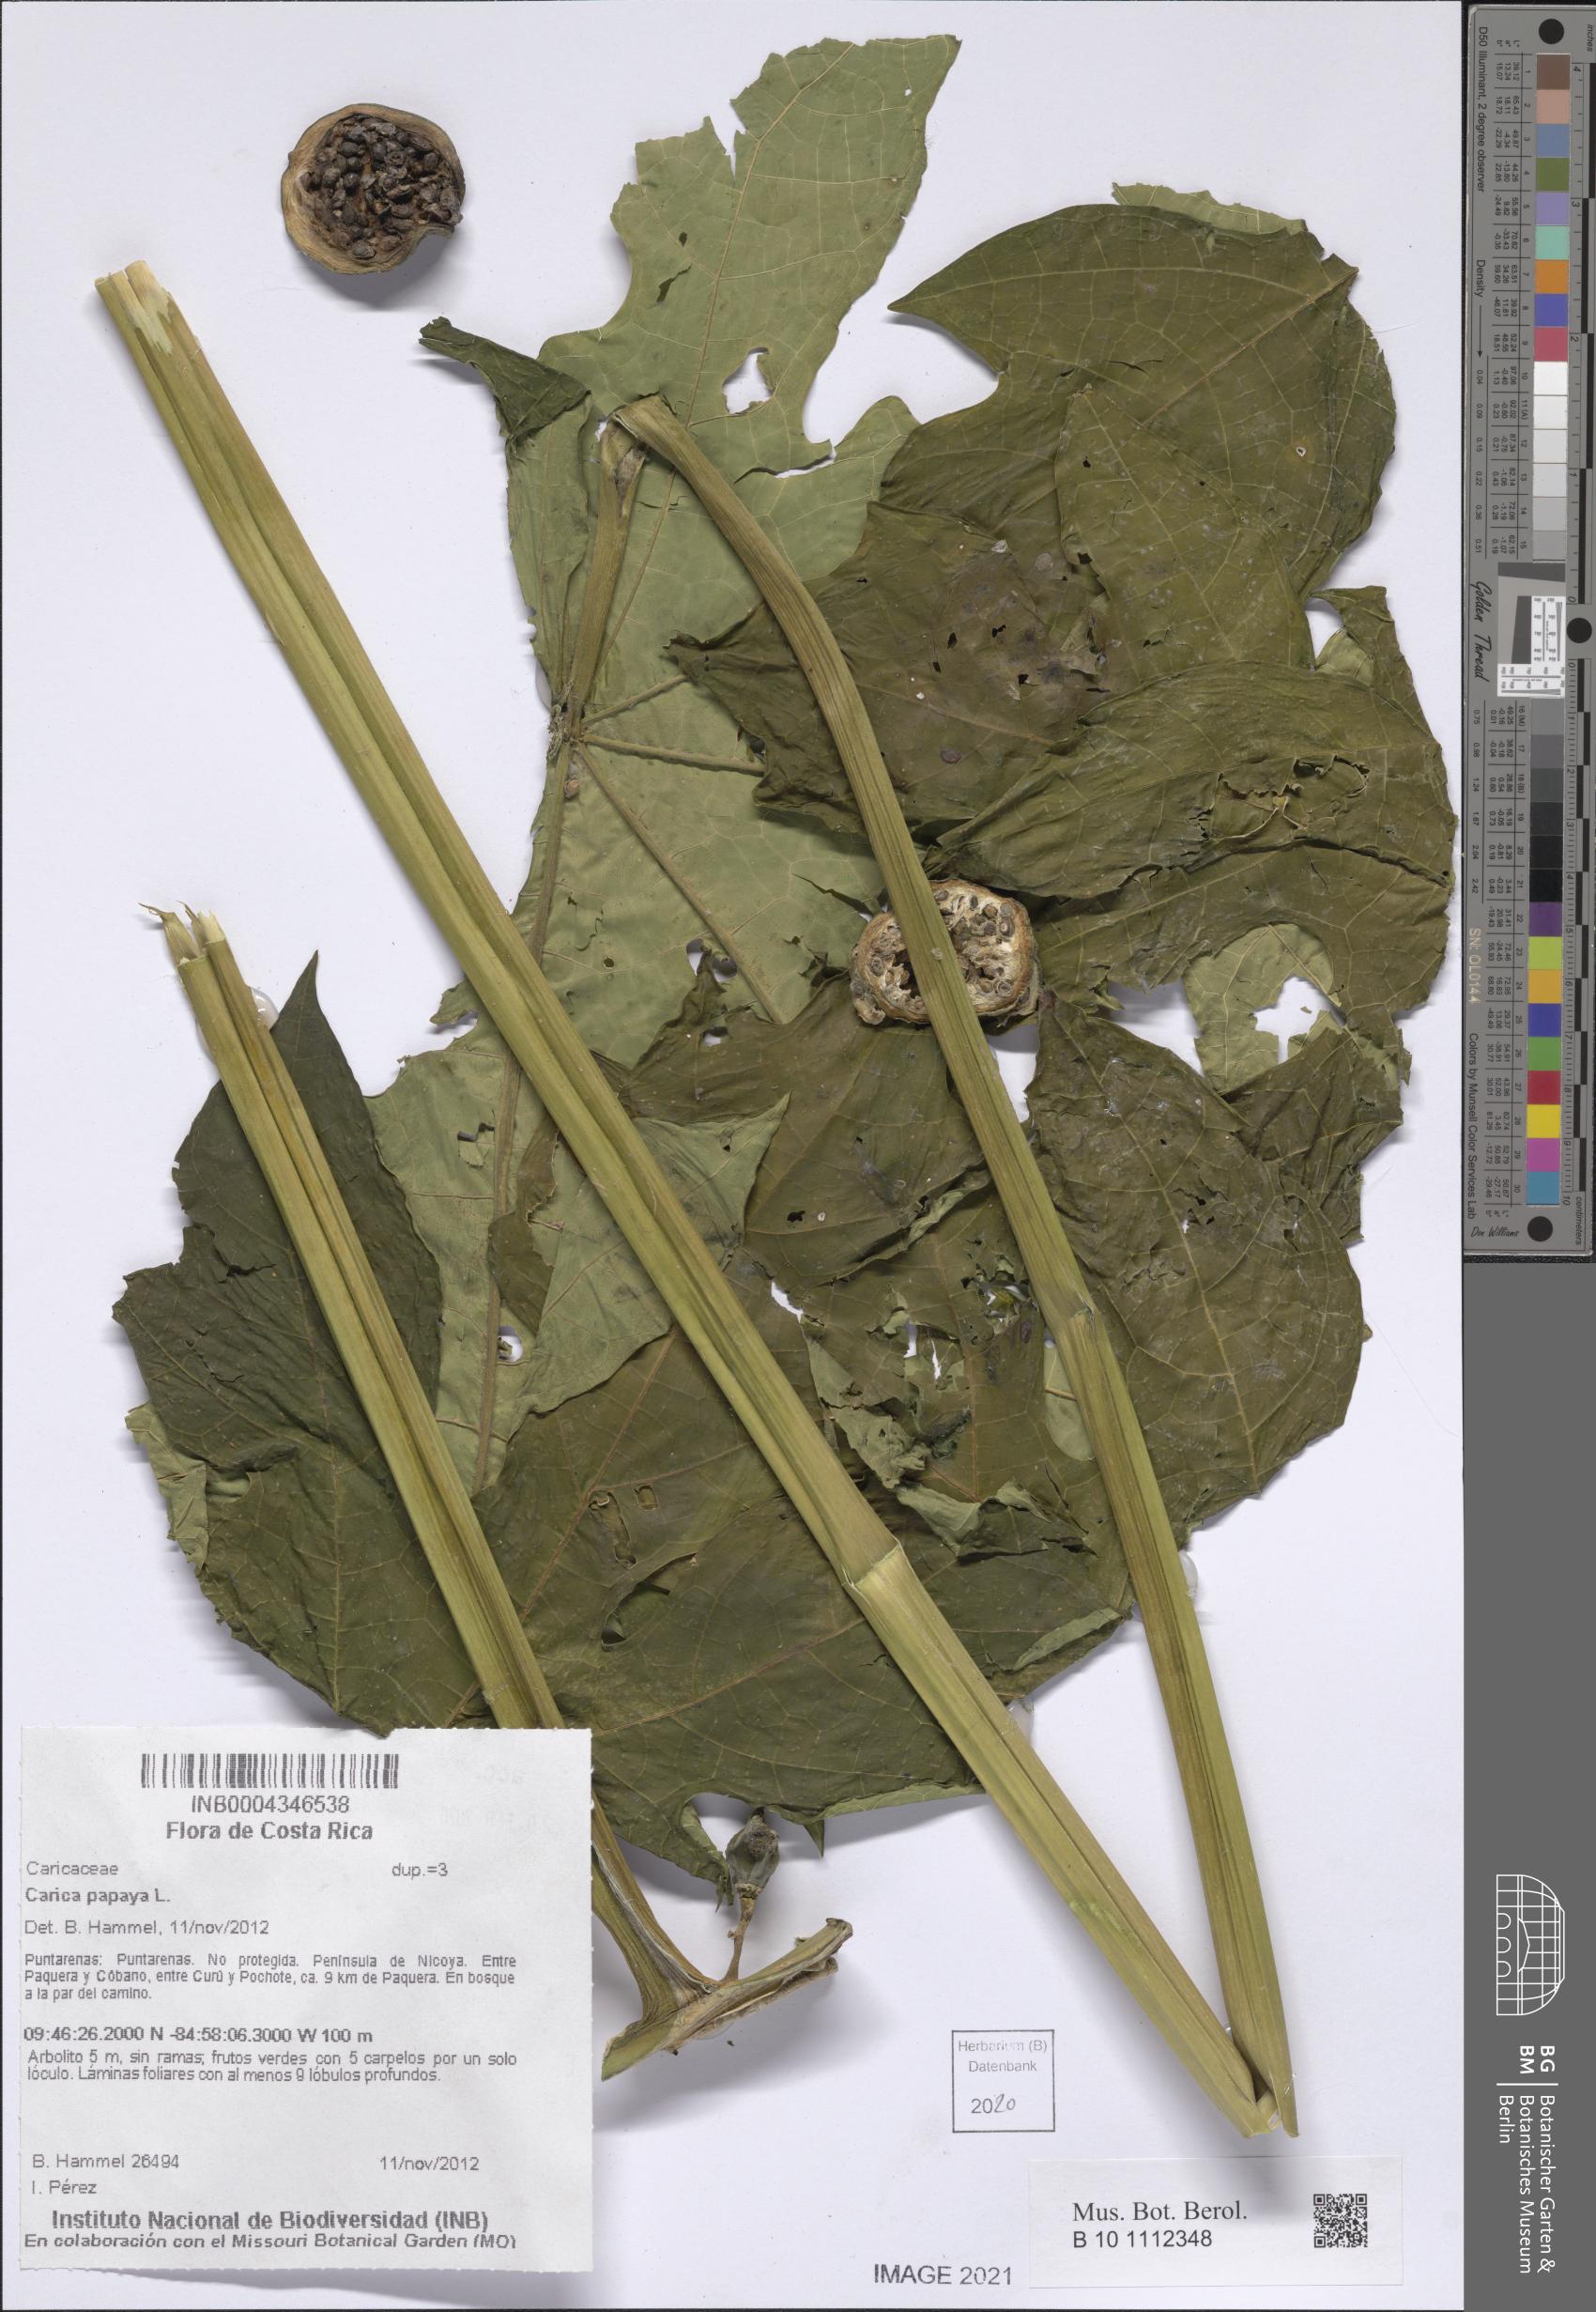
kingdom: Plantae
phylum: Tracheophyta
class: Magnoliopsida
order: Brassicales
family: Caricaceae
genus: Carica
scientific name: Carica papaya
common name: Papaya
